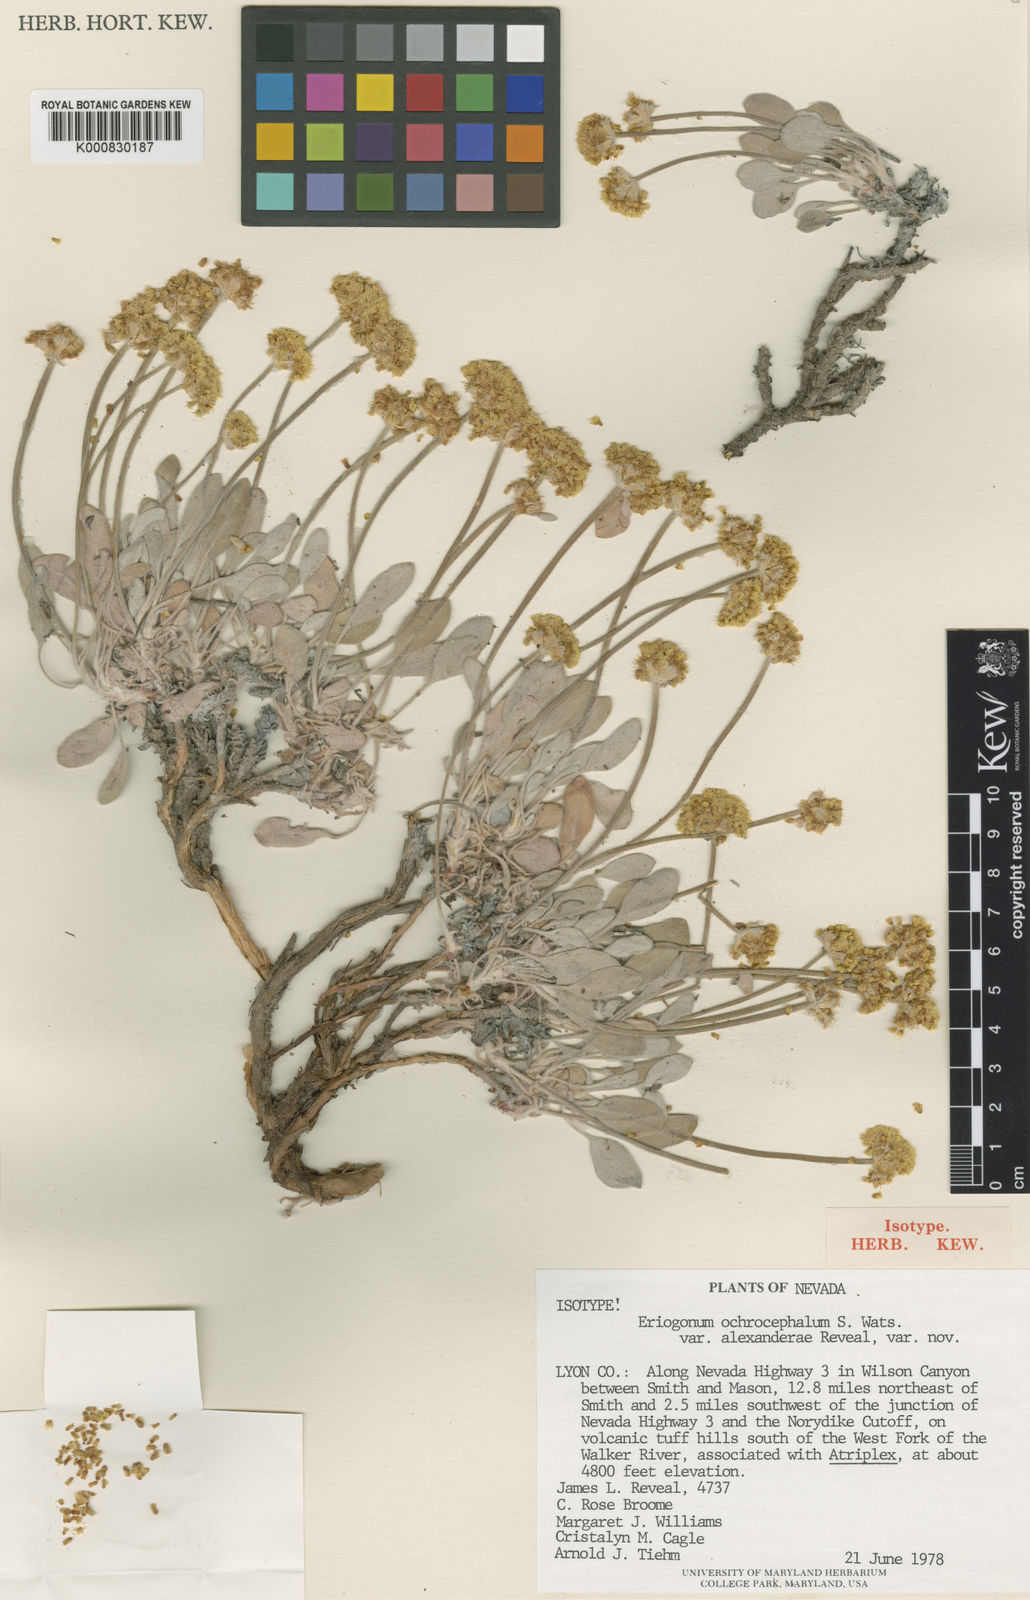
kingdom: Plantae
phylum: Tracheophyta
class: Magnoliopsida
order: Caryophyllales
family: Polygonaceae
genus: Eriogonum
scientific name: Eriogonum alexanderae
